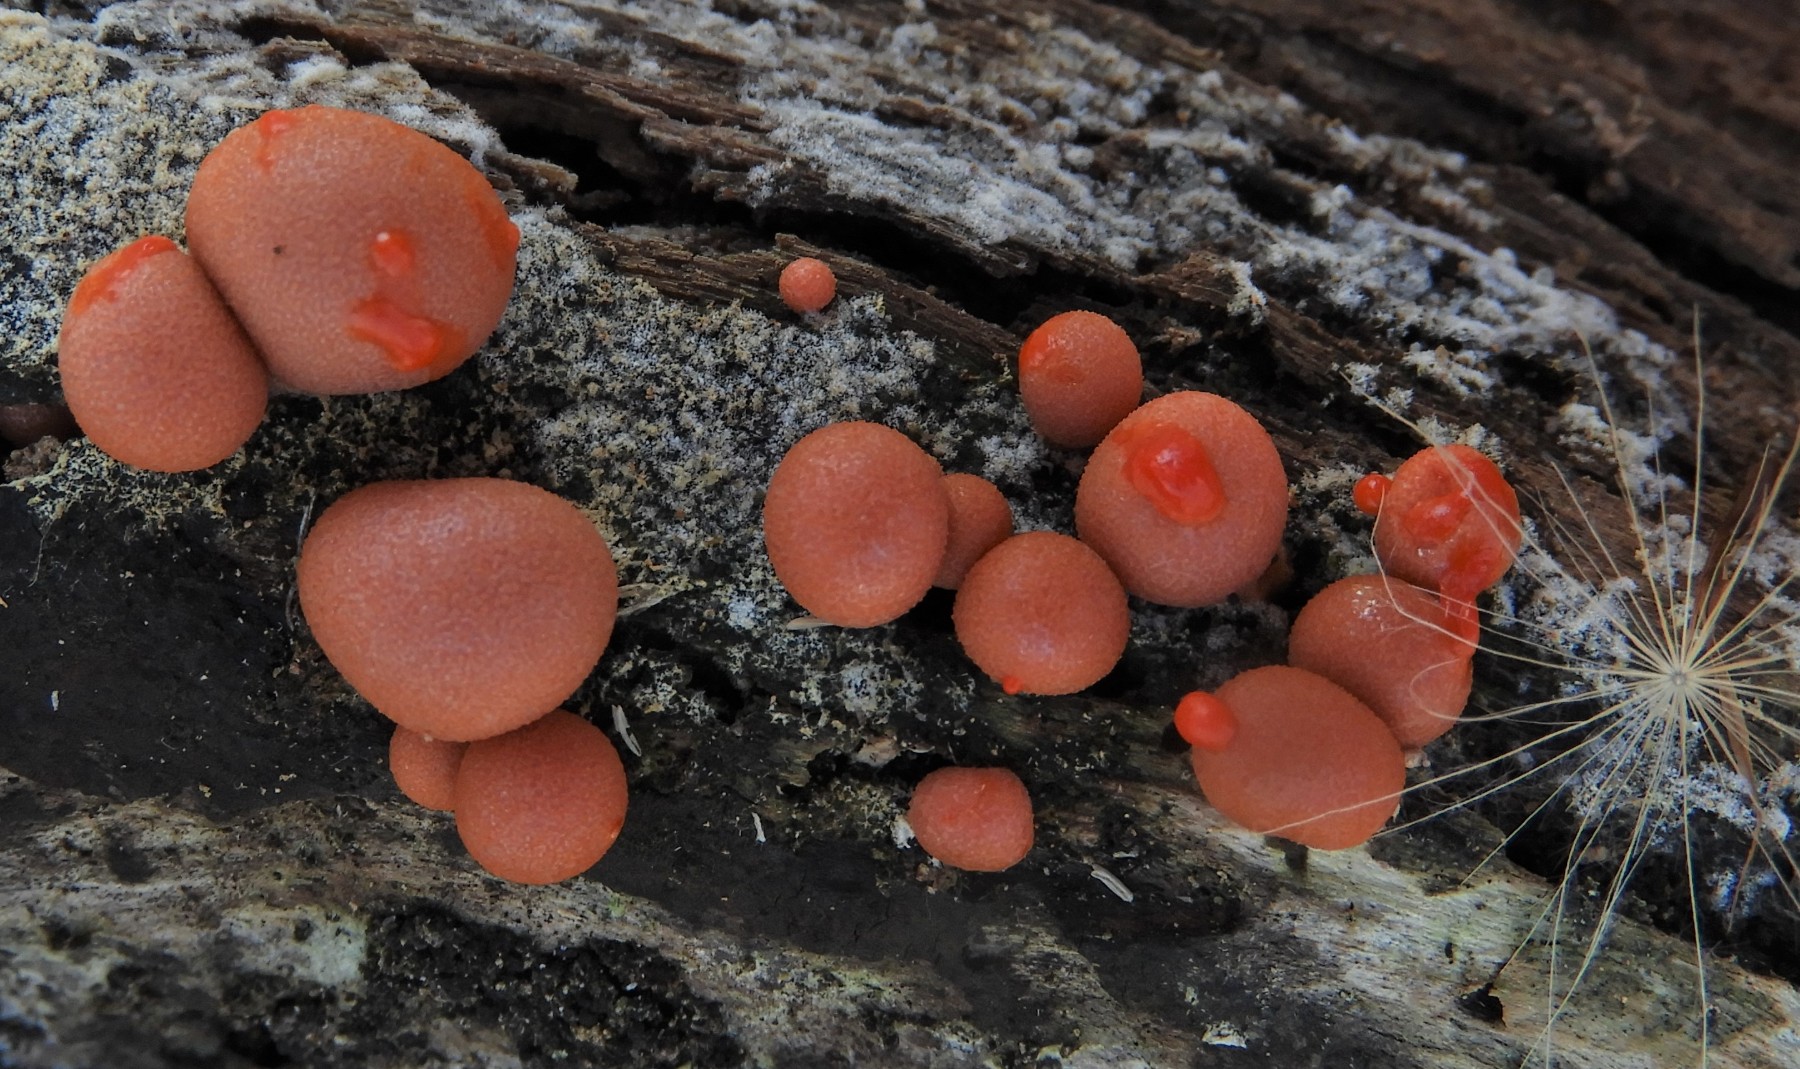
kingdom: Protozoa
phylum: Mycetozoa
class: Myxomycetes
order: Cribrariales
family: Tubiferaceae
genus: Lycogala
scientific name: Lycogala epidendrum
